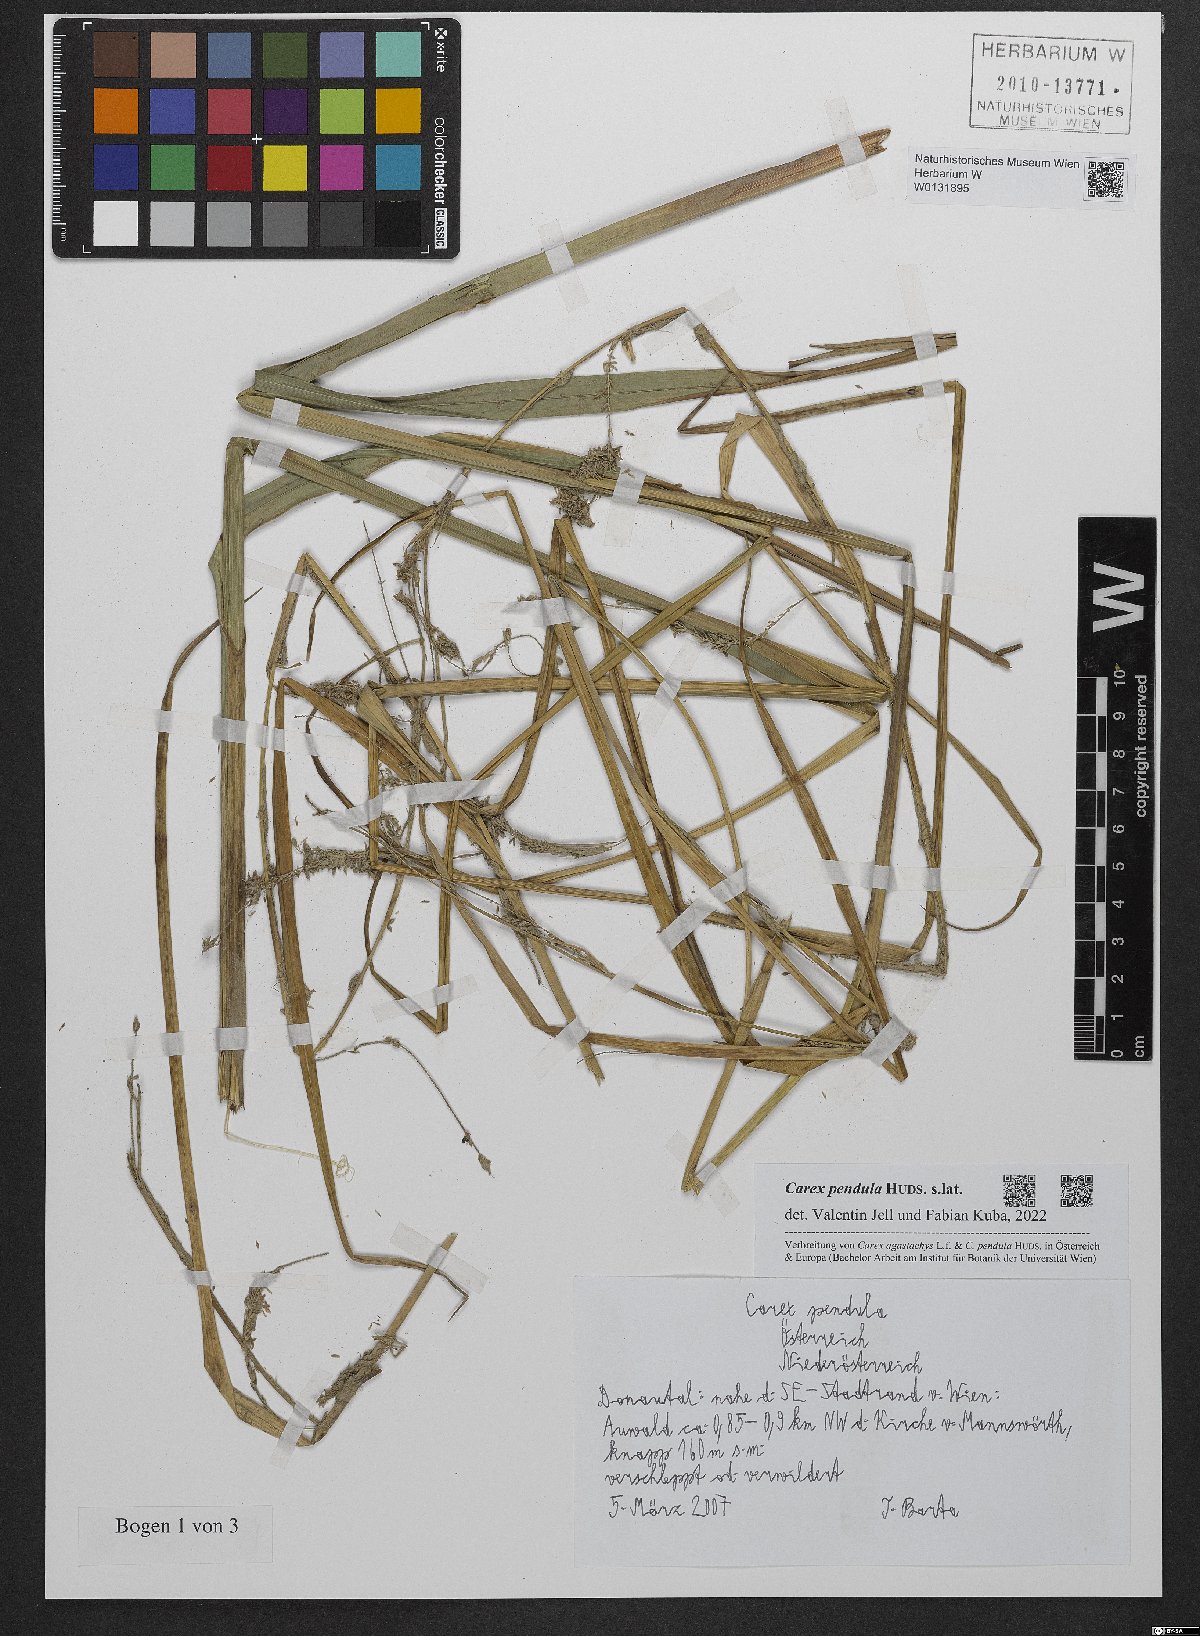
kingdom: Plantae
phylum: Tracheophyta
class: Liliopsida
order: Poales
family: Cyperaceae
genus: Carex
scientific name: Carex pendula
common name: Pendulous sedge
